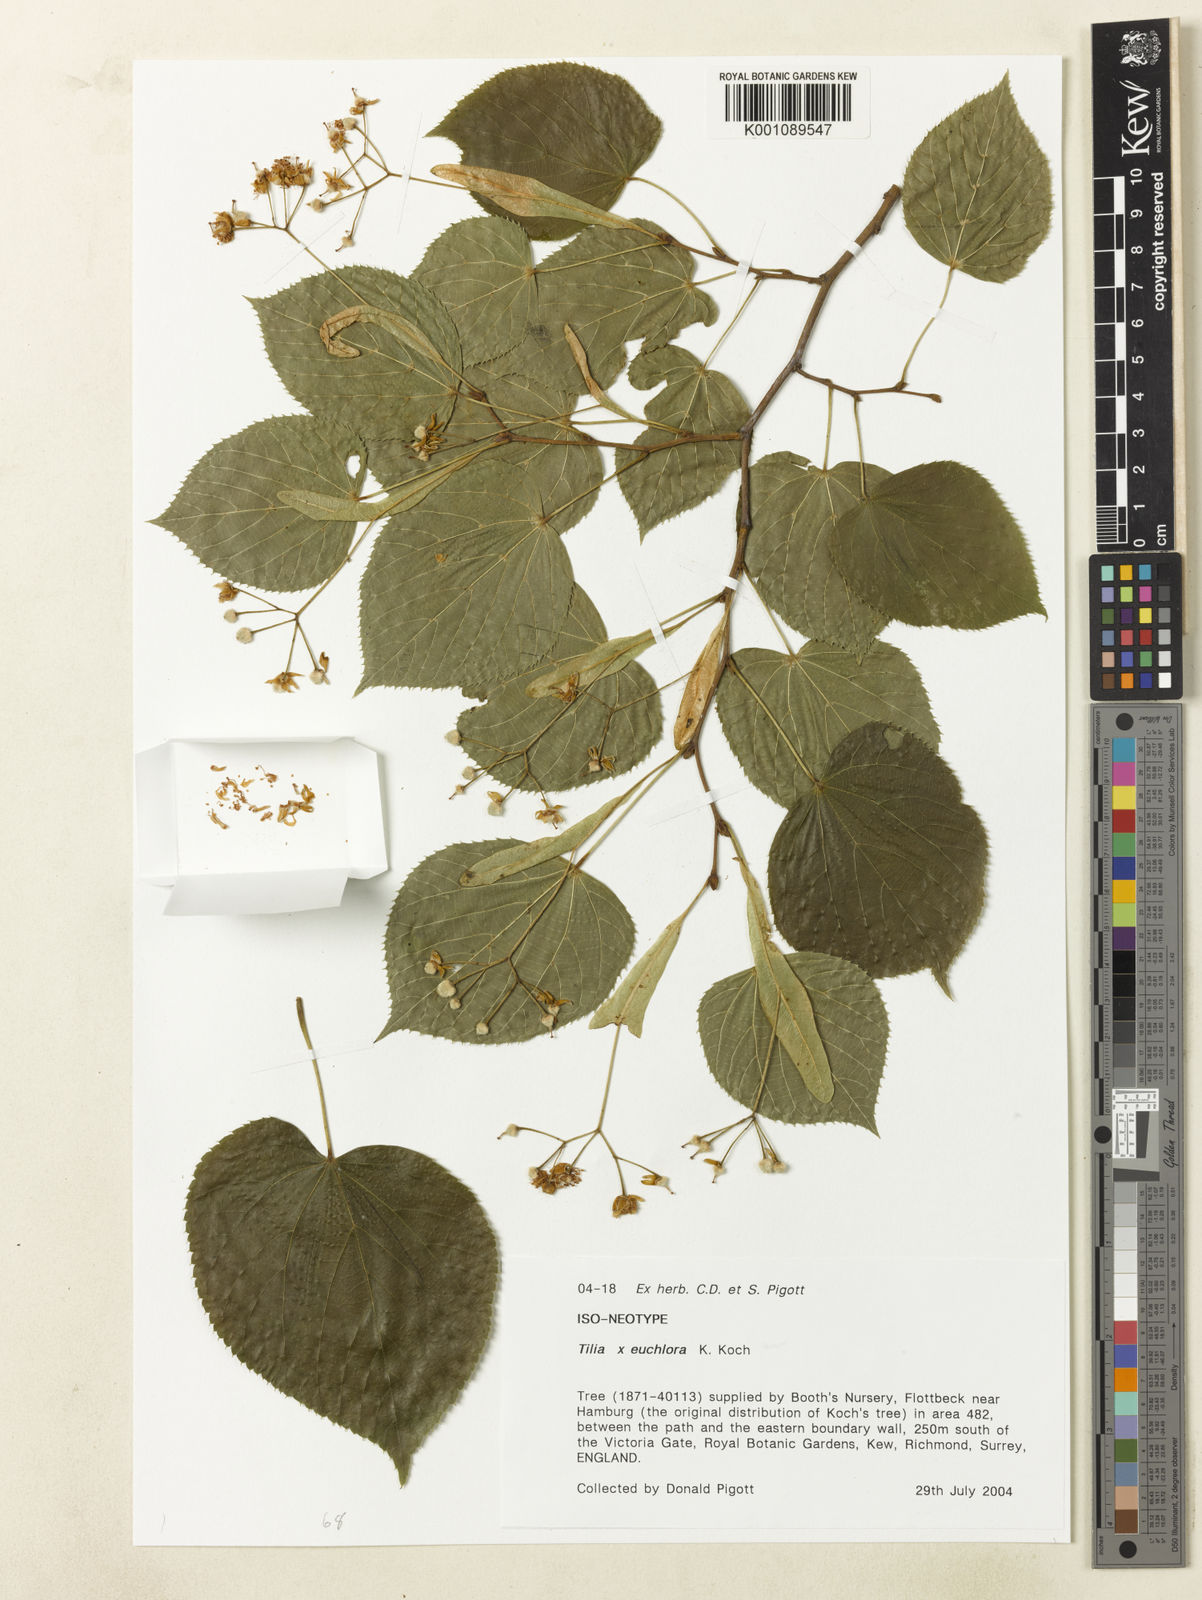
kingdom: Plantae
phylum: Tracheophyta
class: Magnoliopsida
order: Malvales
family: Malvaceae
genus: Tilia
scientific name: Tilia euchlora
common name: Caucasian lime
